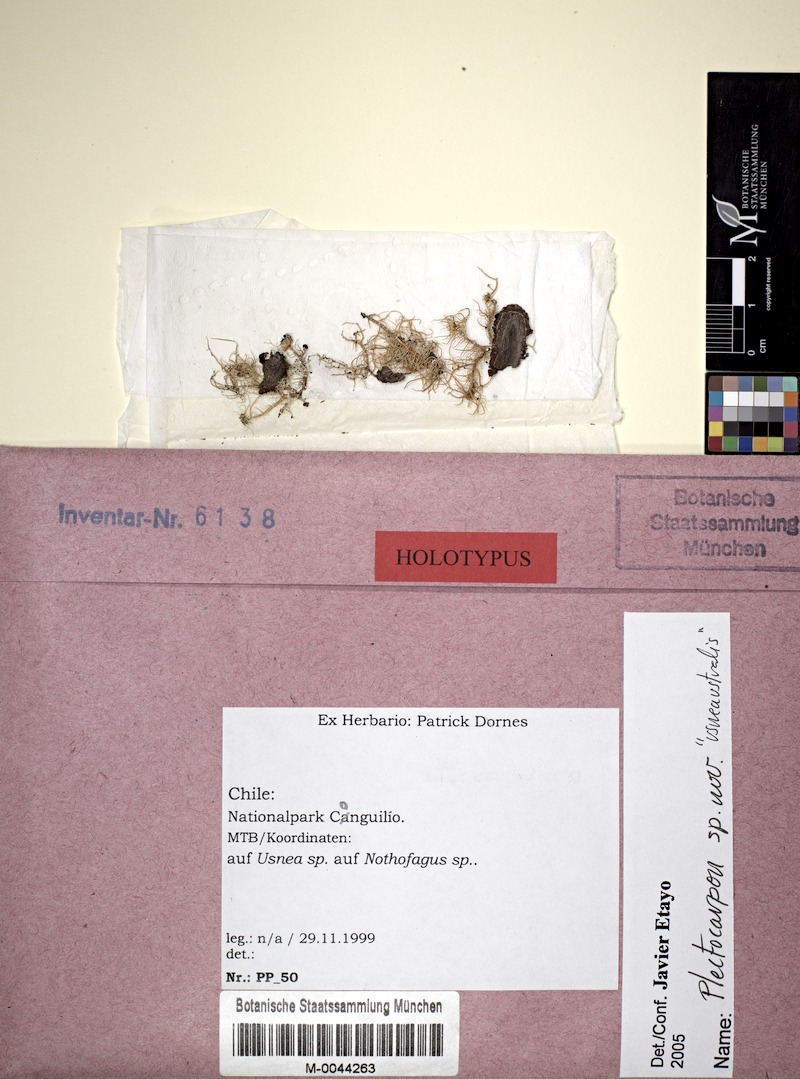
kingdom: Fungi
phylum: Ascomycota
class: Lecanoromycetes
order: Lecanorales
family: Parmeliaceae
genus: Usnea
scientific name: Usnea
